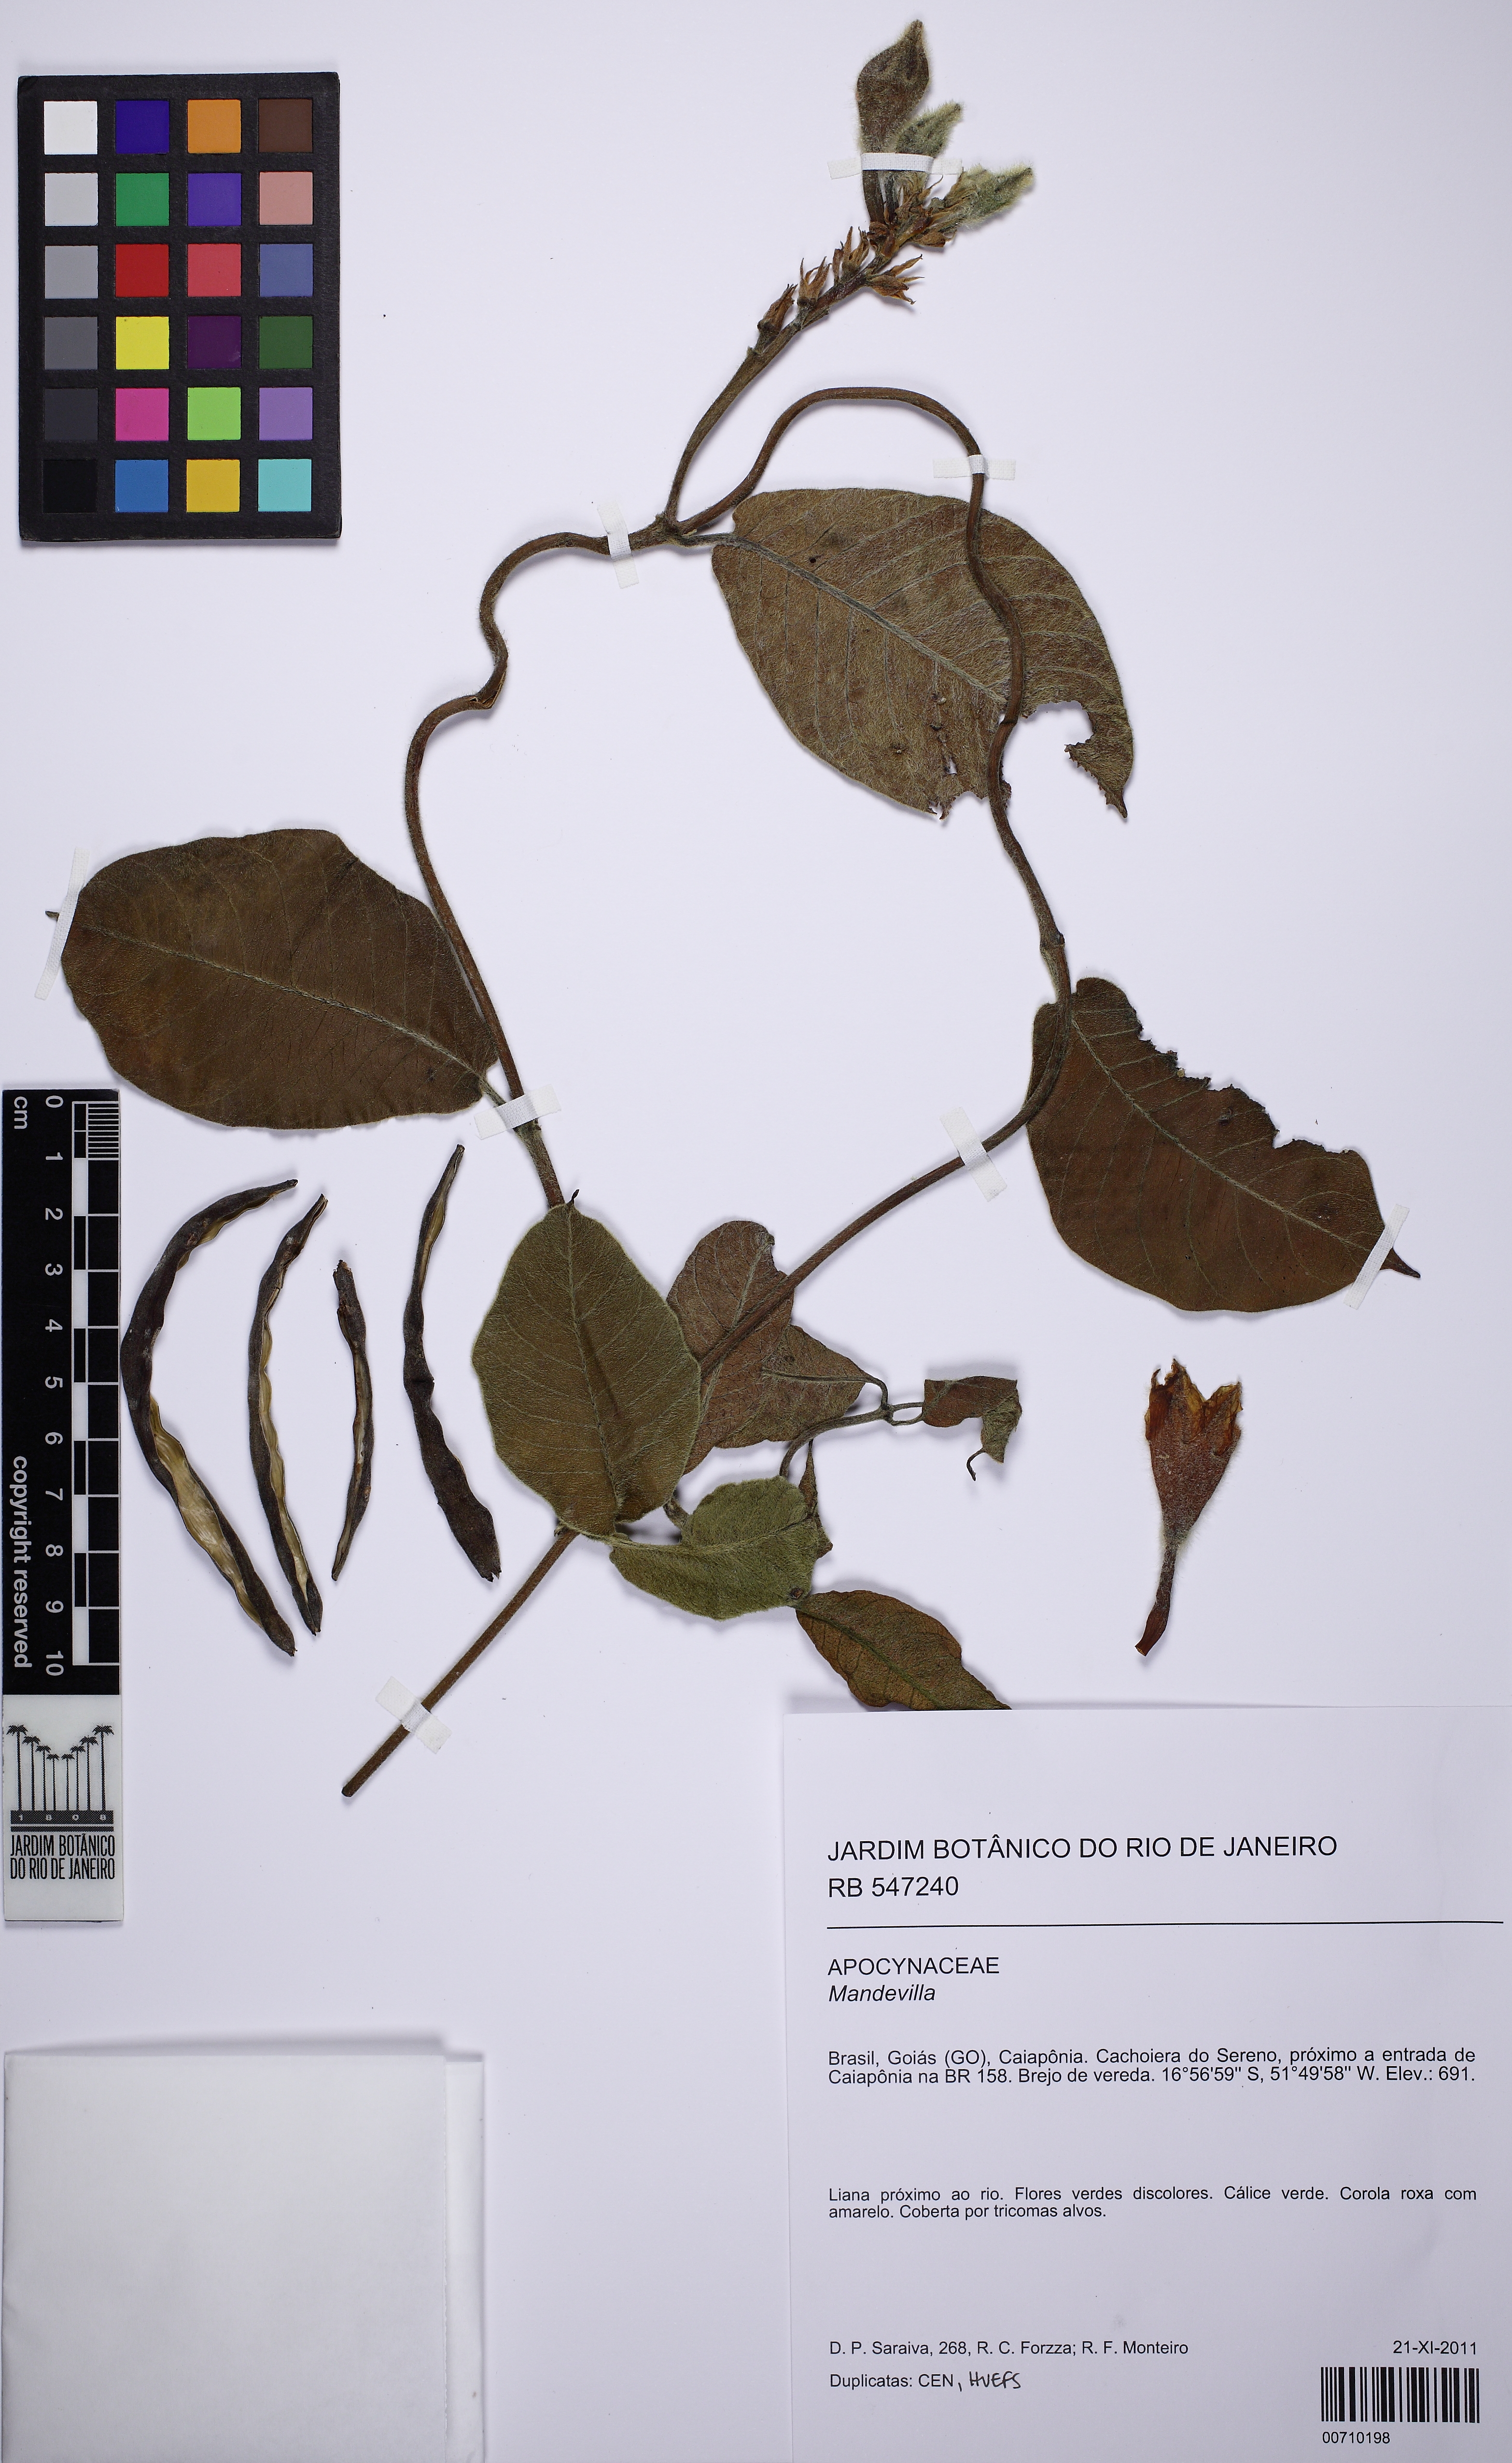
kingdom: Plantae
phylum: Tracheophyta
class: Magnoliopsida
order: Gentianales
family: Apocynaceae
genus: Mandevilla
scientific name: Mandevilla
